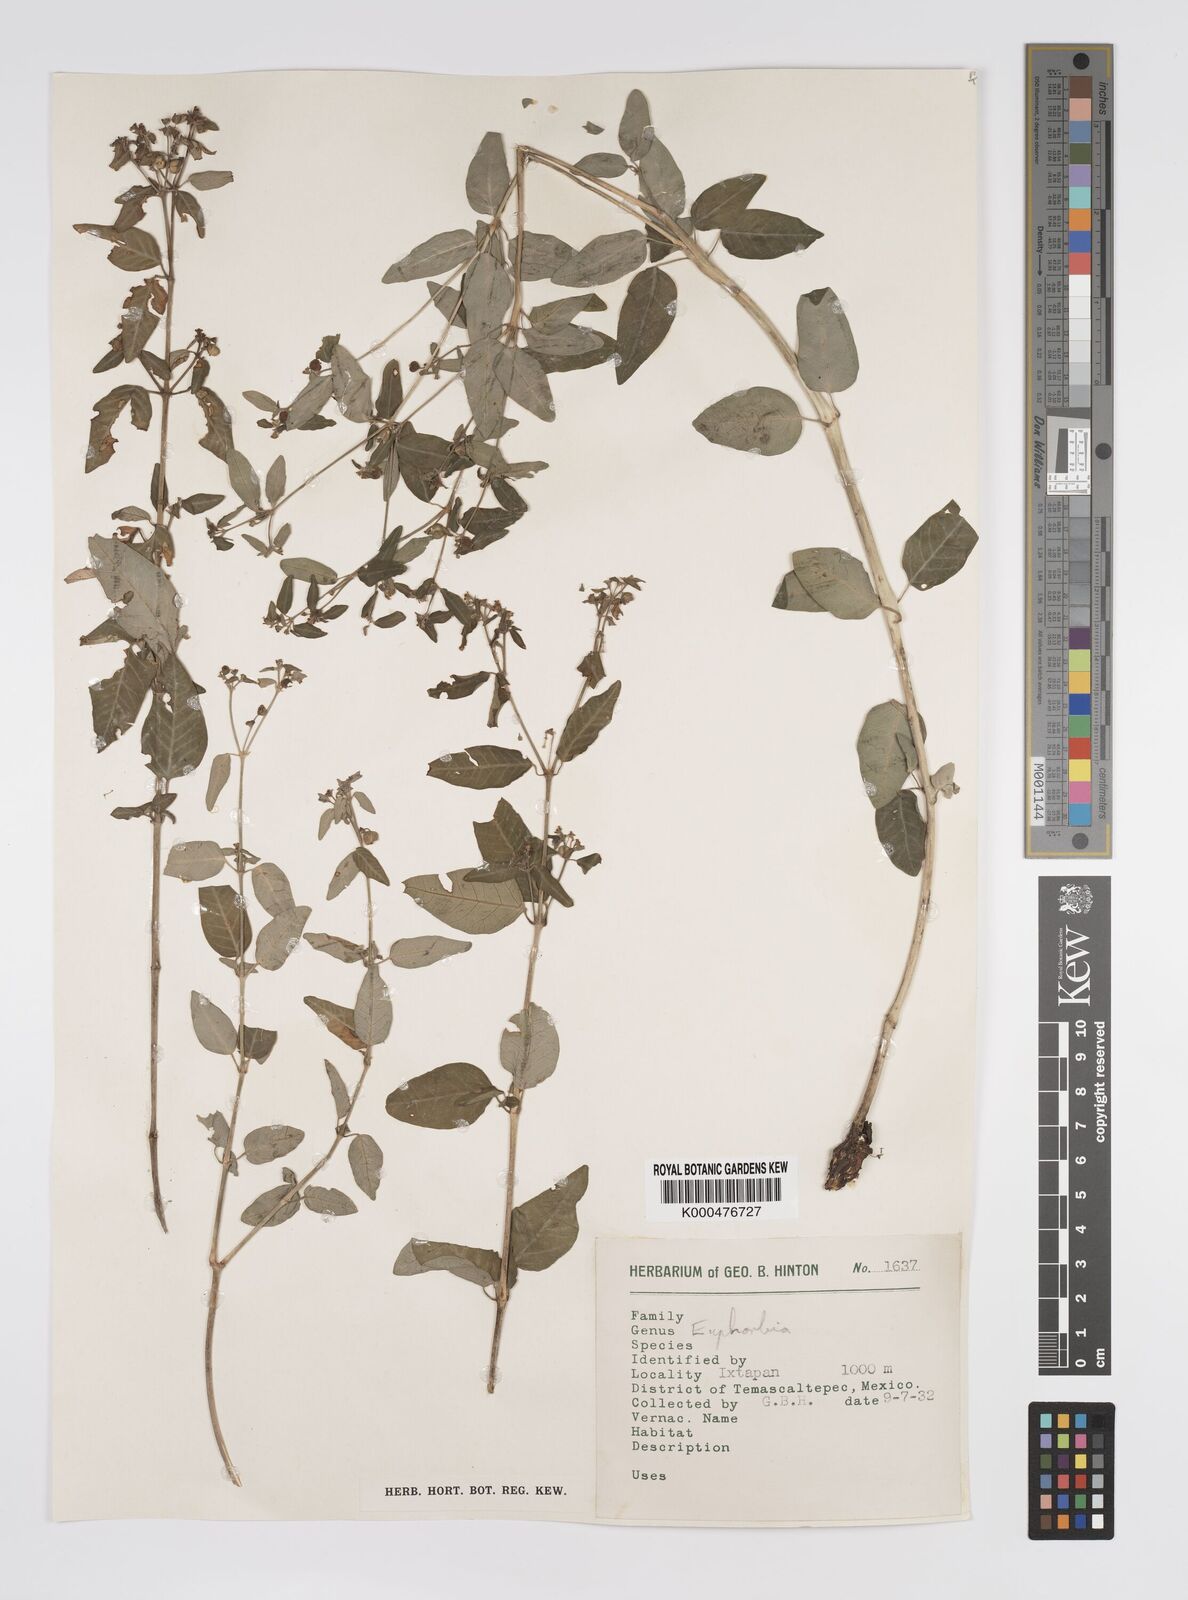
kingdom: Plantae
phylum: Tracheophyta
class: Magnoliopsida
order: Malpighiales
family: Euphorbiaceae
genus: Euphorbia
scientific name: Euphorbia
